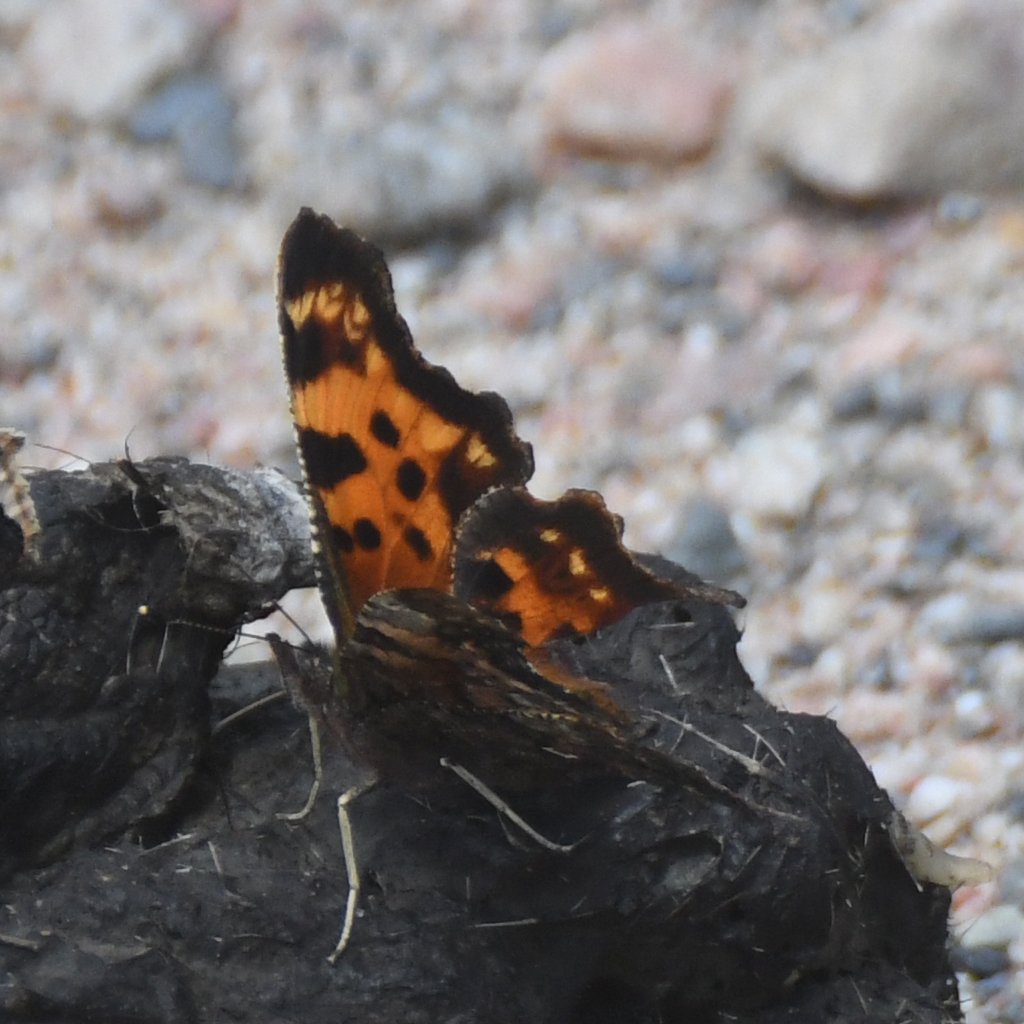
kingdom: Animalia
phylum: Arthropoda
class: Insecta
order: Lepidoptera
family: Nymphalidae
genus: Polygonia
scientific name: Polygonia faunus
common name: Green Comma
